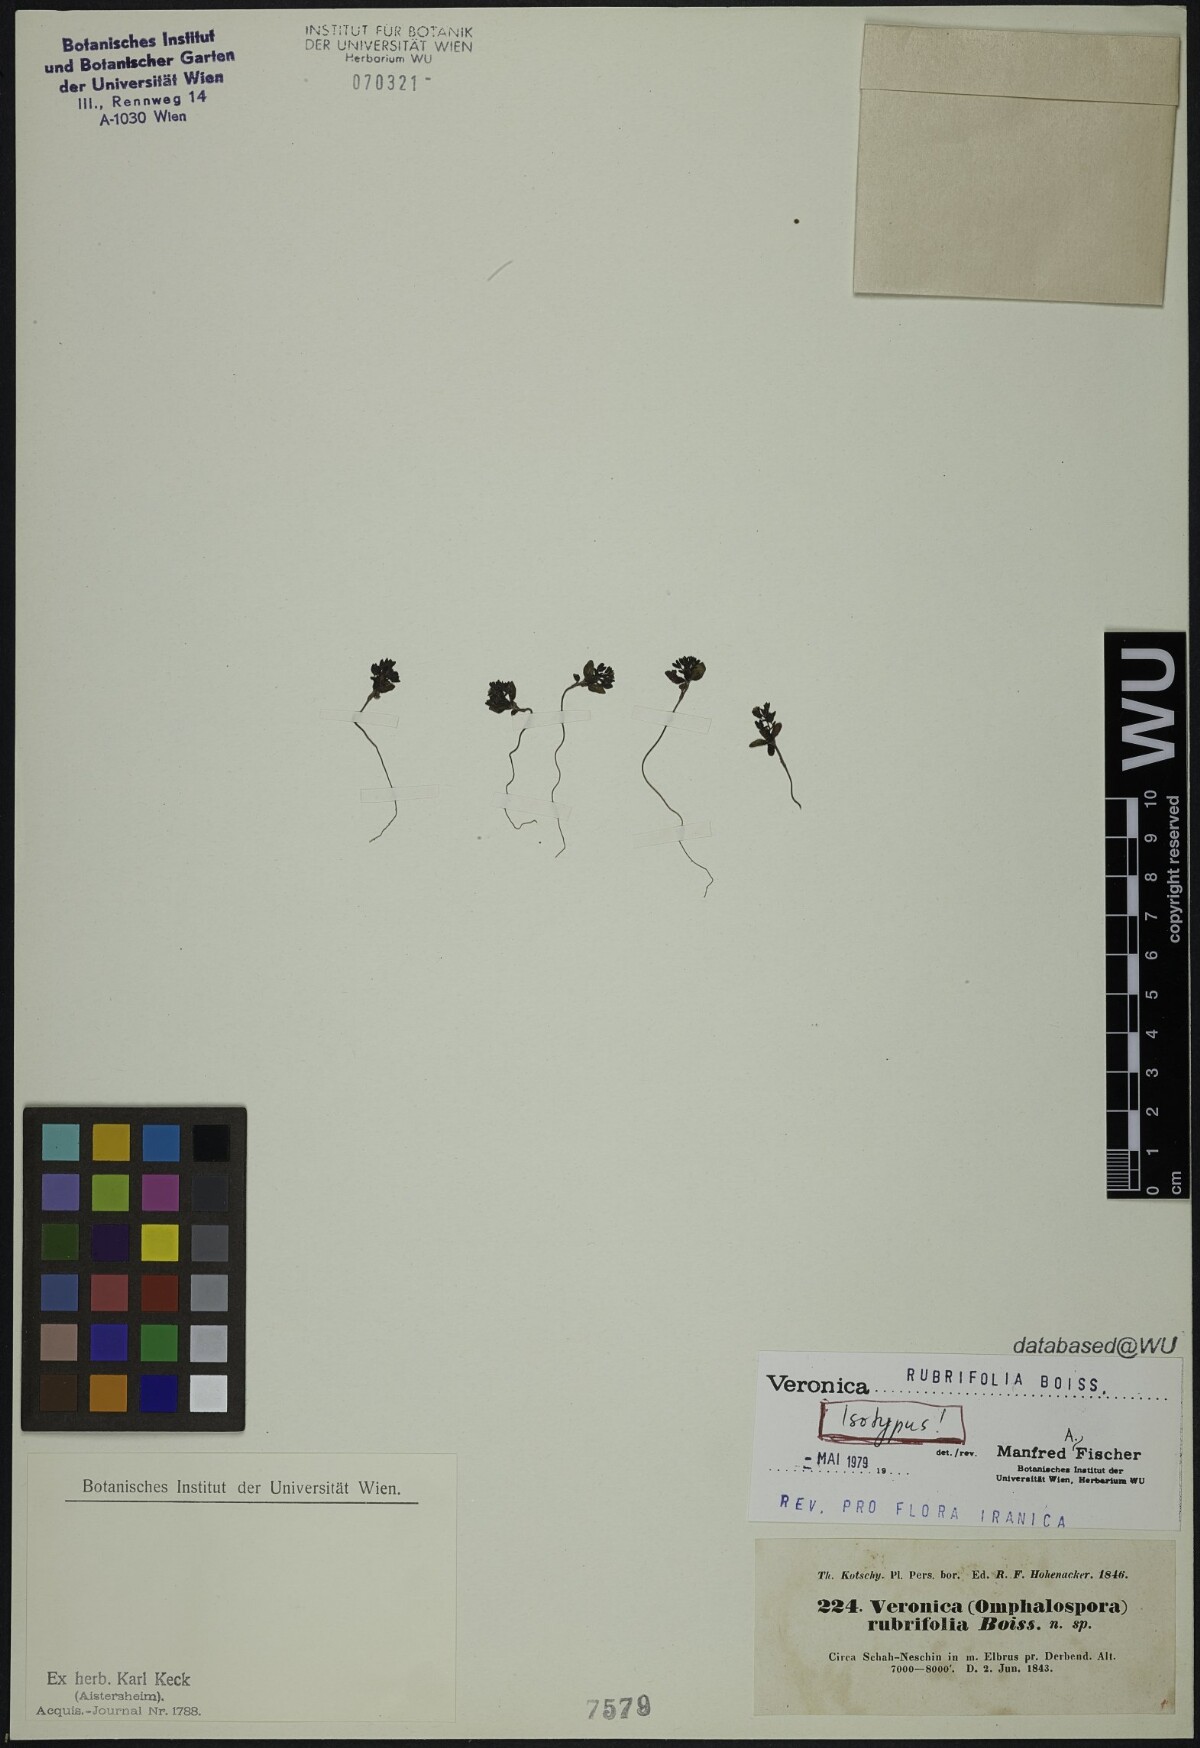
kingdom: Plantae
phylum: Tracheophyta
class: Magnoliopsida
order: Lamiales
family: Plantaginaceae
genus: Veronica
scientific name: Veronica rubrifolia
